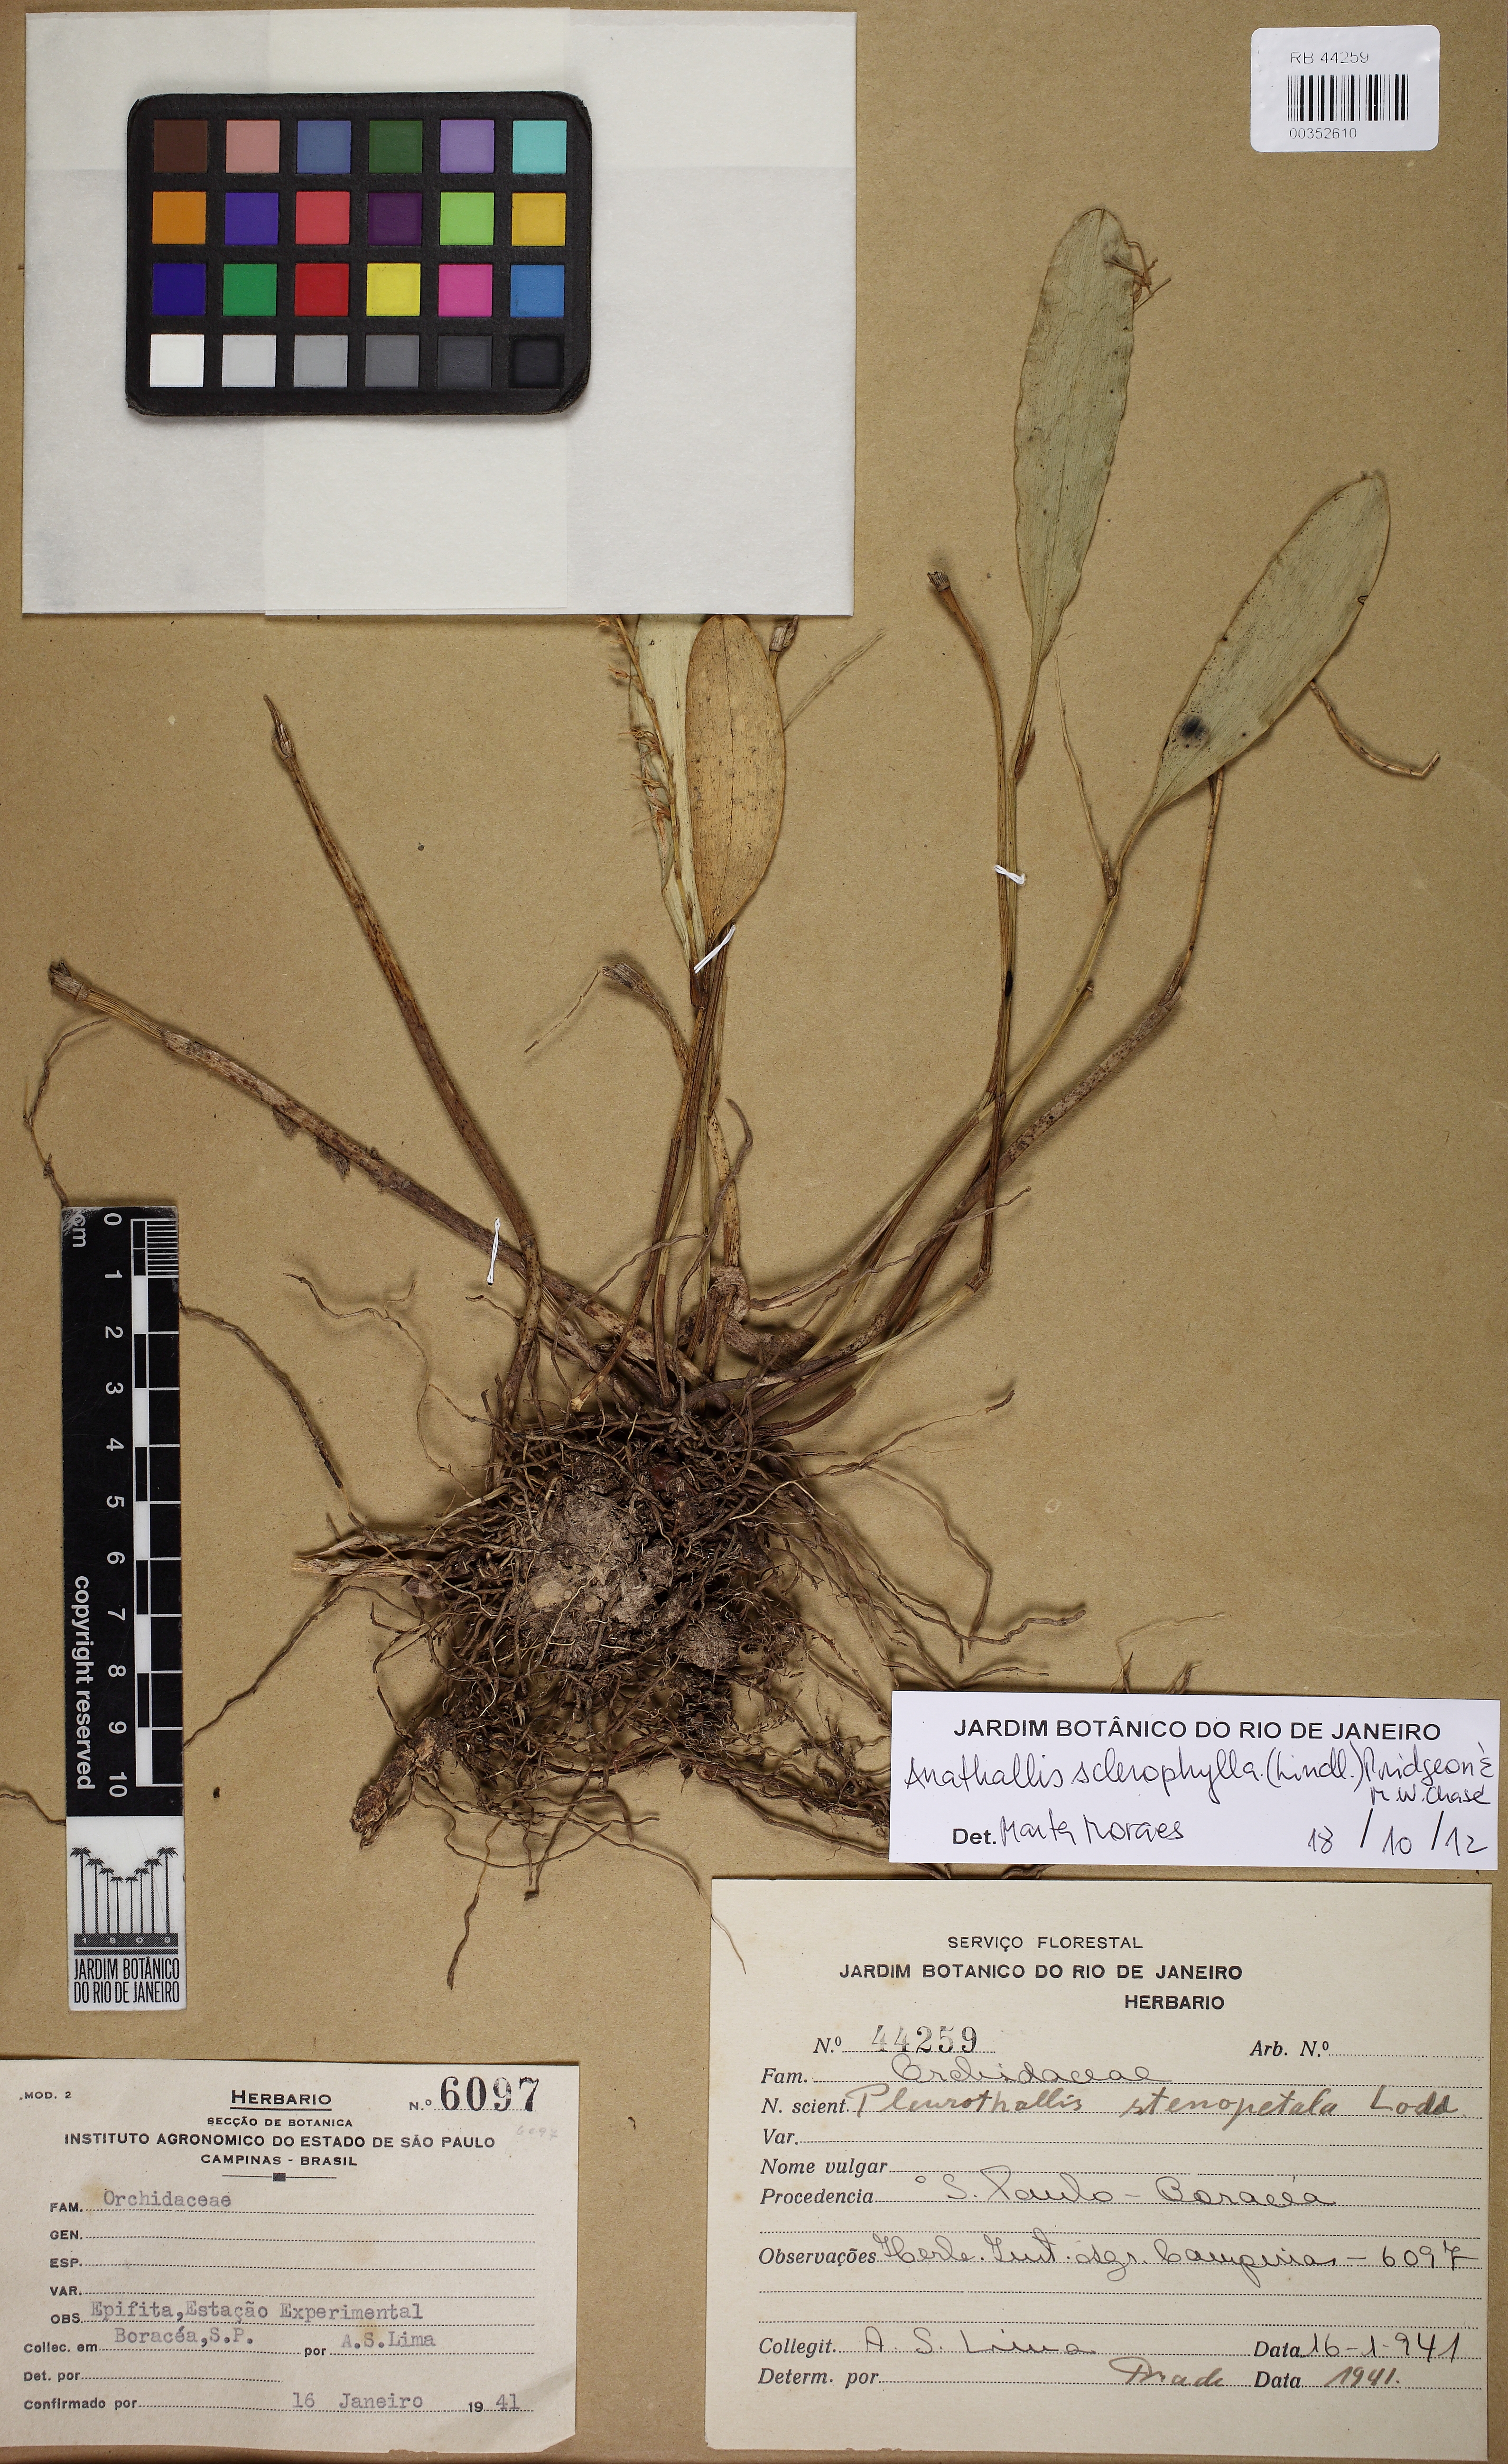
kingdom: Plantae
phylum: Tracheophyta
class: Liliopsida
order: Asparagales
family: Orchidaceae
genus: Stelis
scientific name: Stelis sclerophylla
